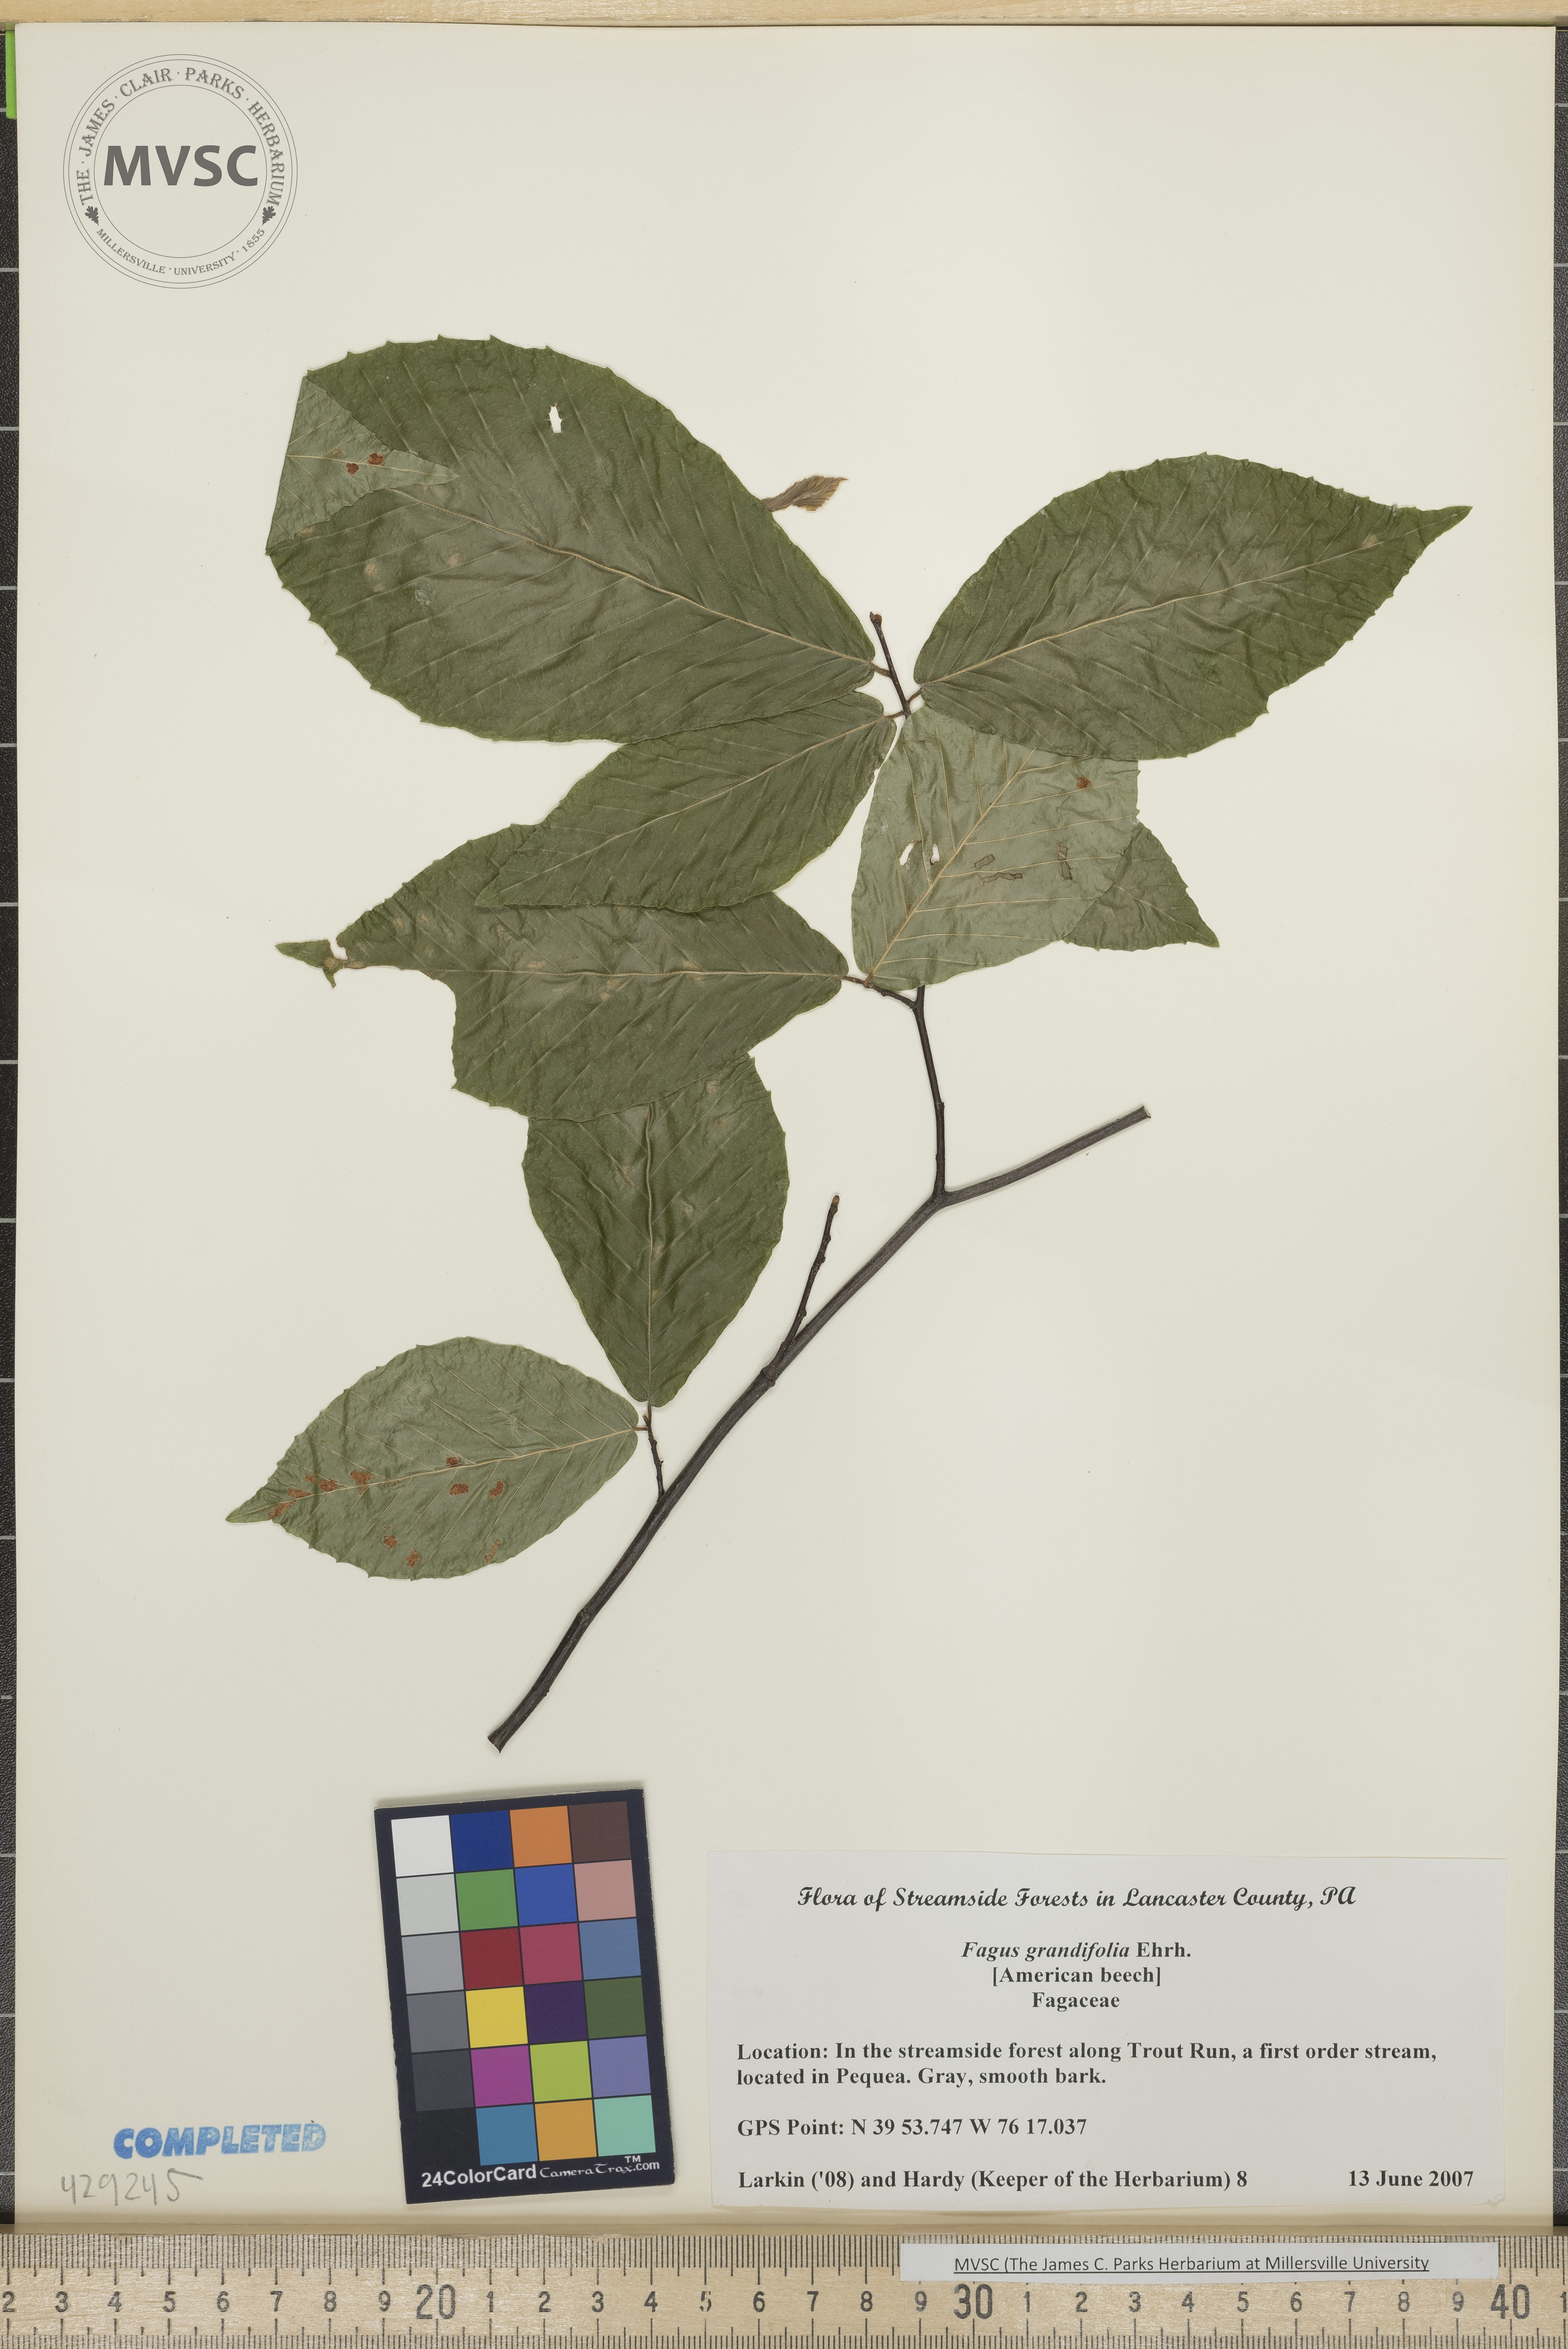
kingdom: Plantae
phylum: Tracheophyta
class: Magnoliopsida
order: Fagales
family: Fagaceae
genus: Fagus
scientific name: Fagus grandifolia
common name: Beech
